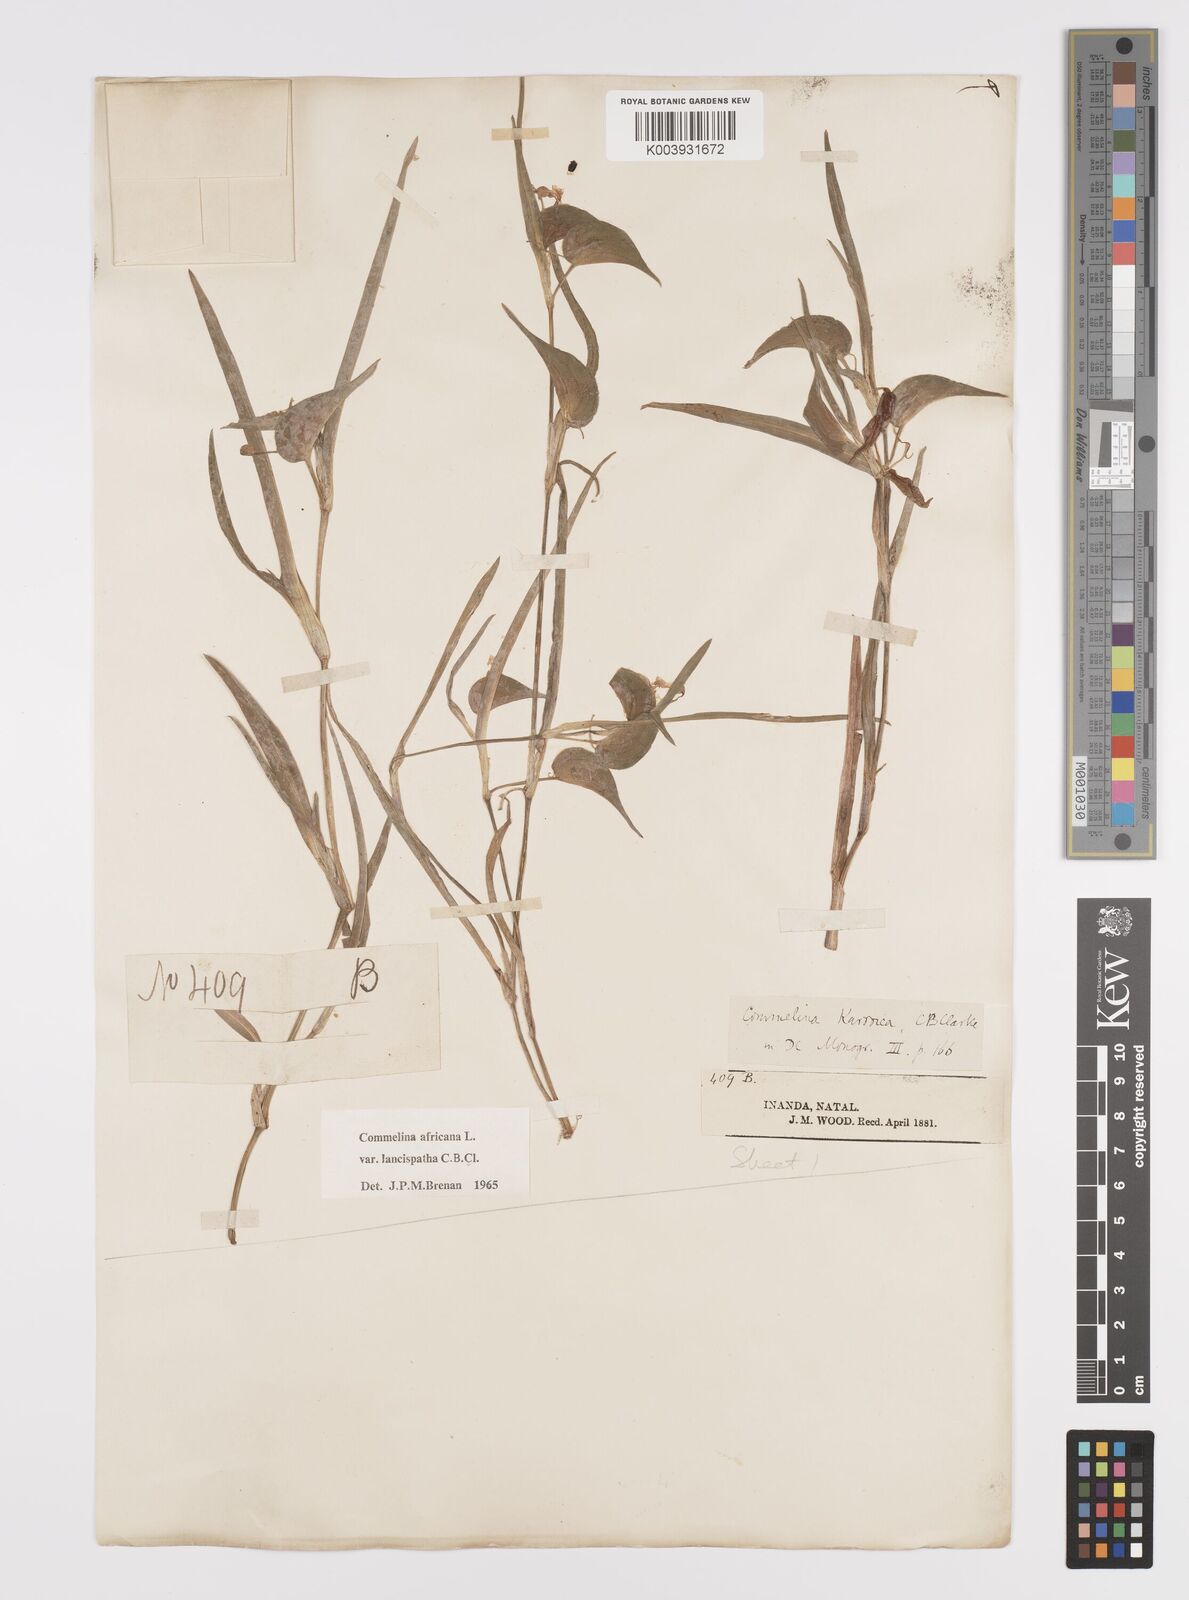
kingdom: Plantae
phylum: Tracheophyta
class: Liliopsida
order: Commelinales
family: Commelinaceae
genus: Commelina
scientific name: Commelina africana
